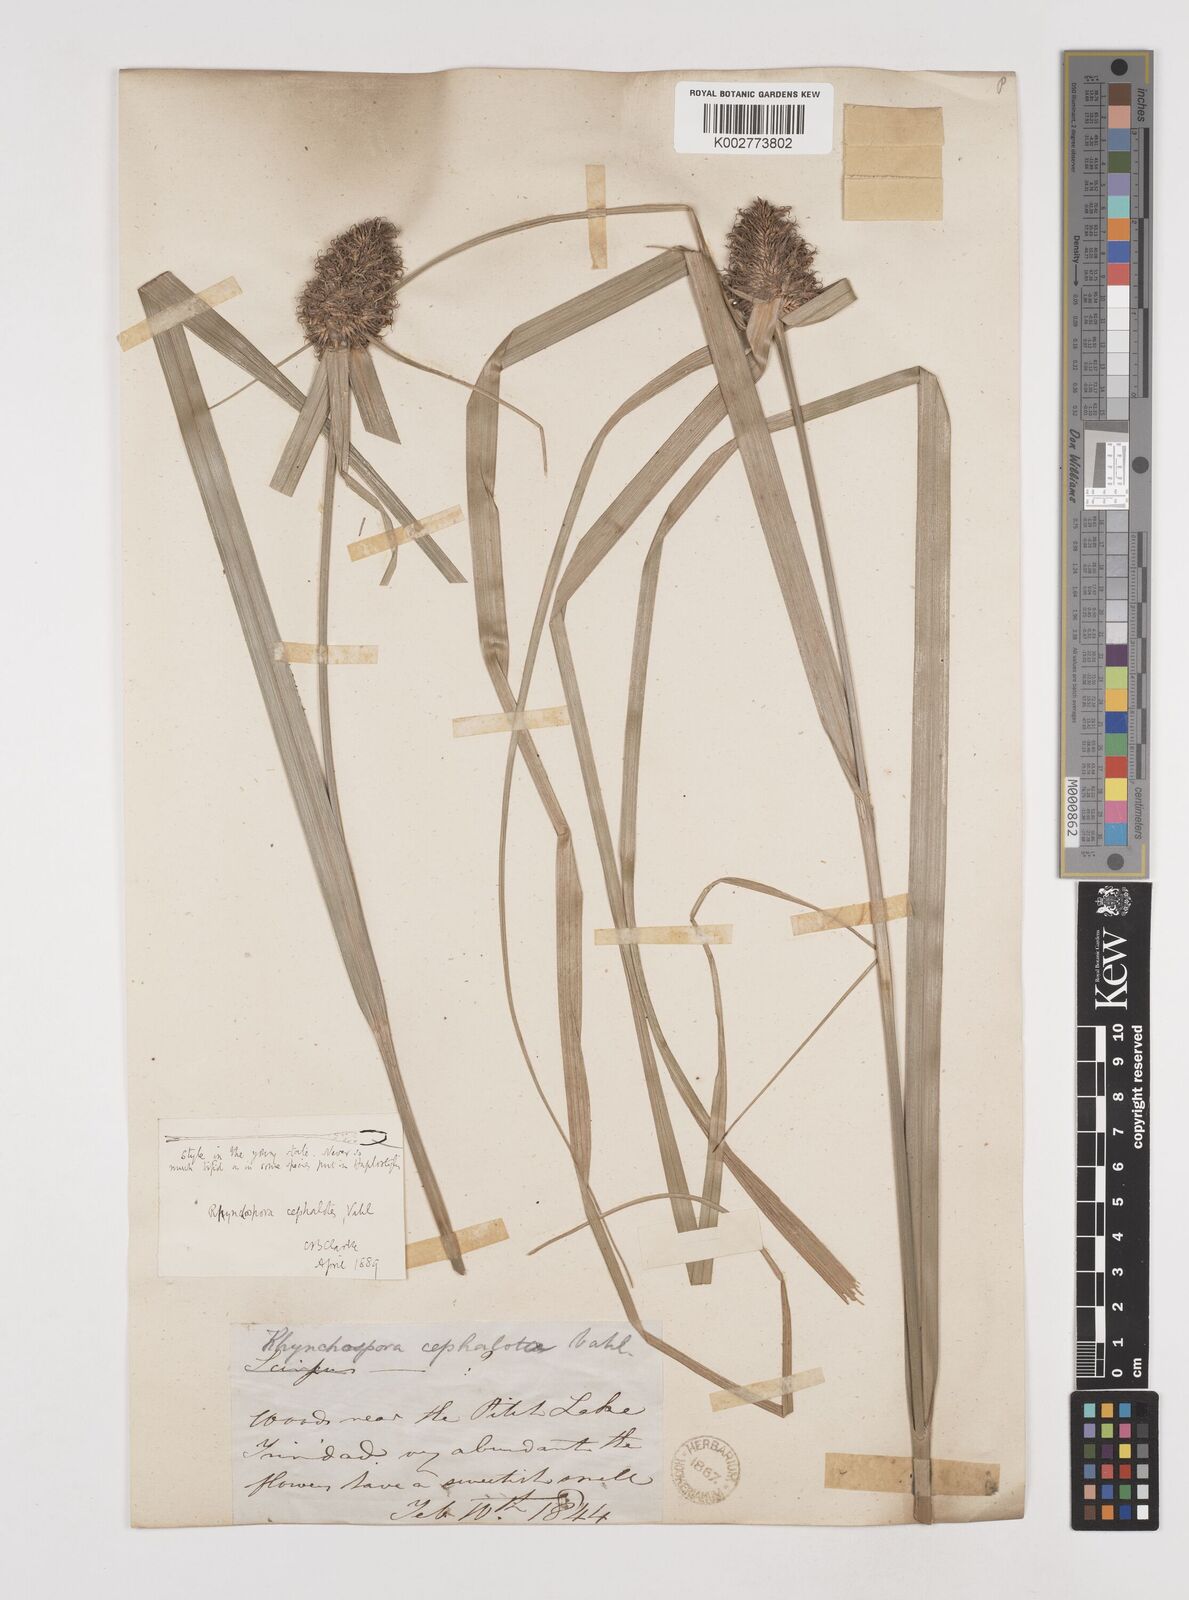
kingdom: Plantae
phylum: Tracheophyta
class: Liliopsida
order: Poales
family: Cyperaceae
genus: Rhynchospora
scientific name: Rhynchospora cephalotes
